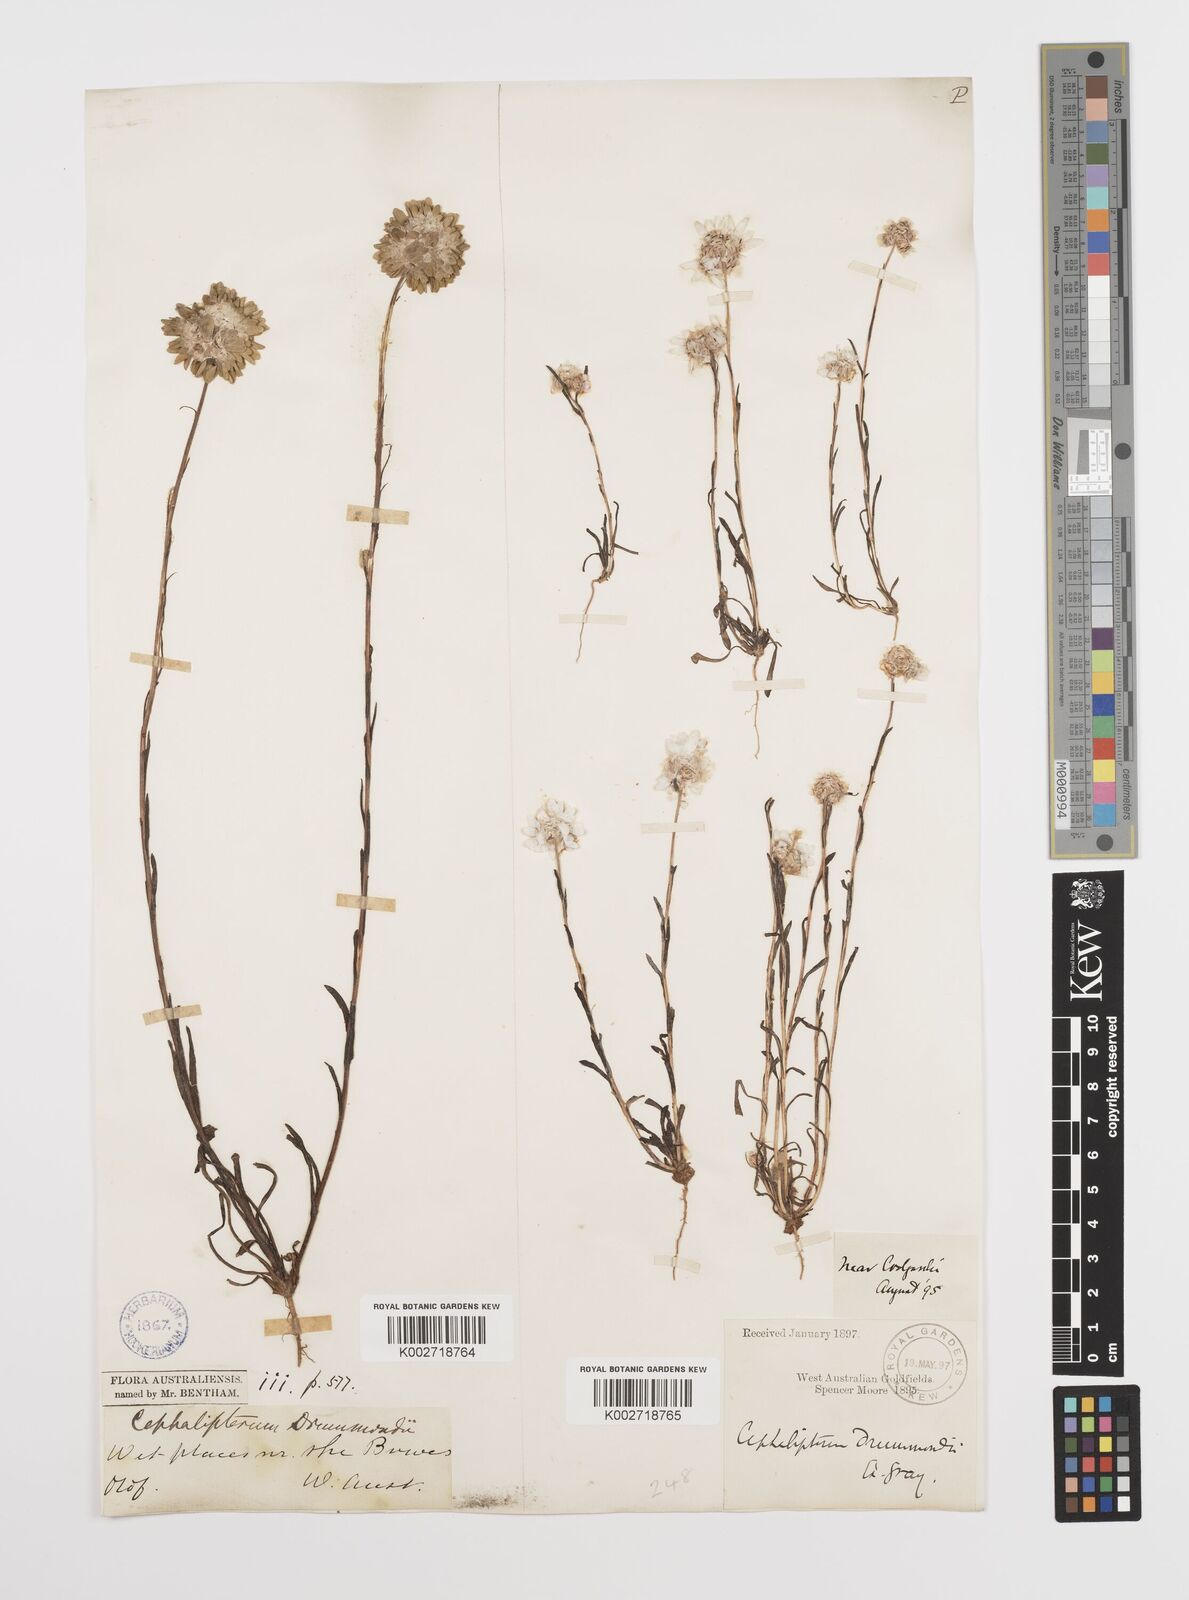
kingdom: Plantae
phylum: Tracheophyta
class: Magnoliopsida
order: Asterales
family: Asteraceae
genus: Cephalipterum
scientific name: Cephalipterum drummondii
